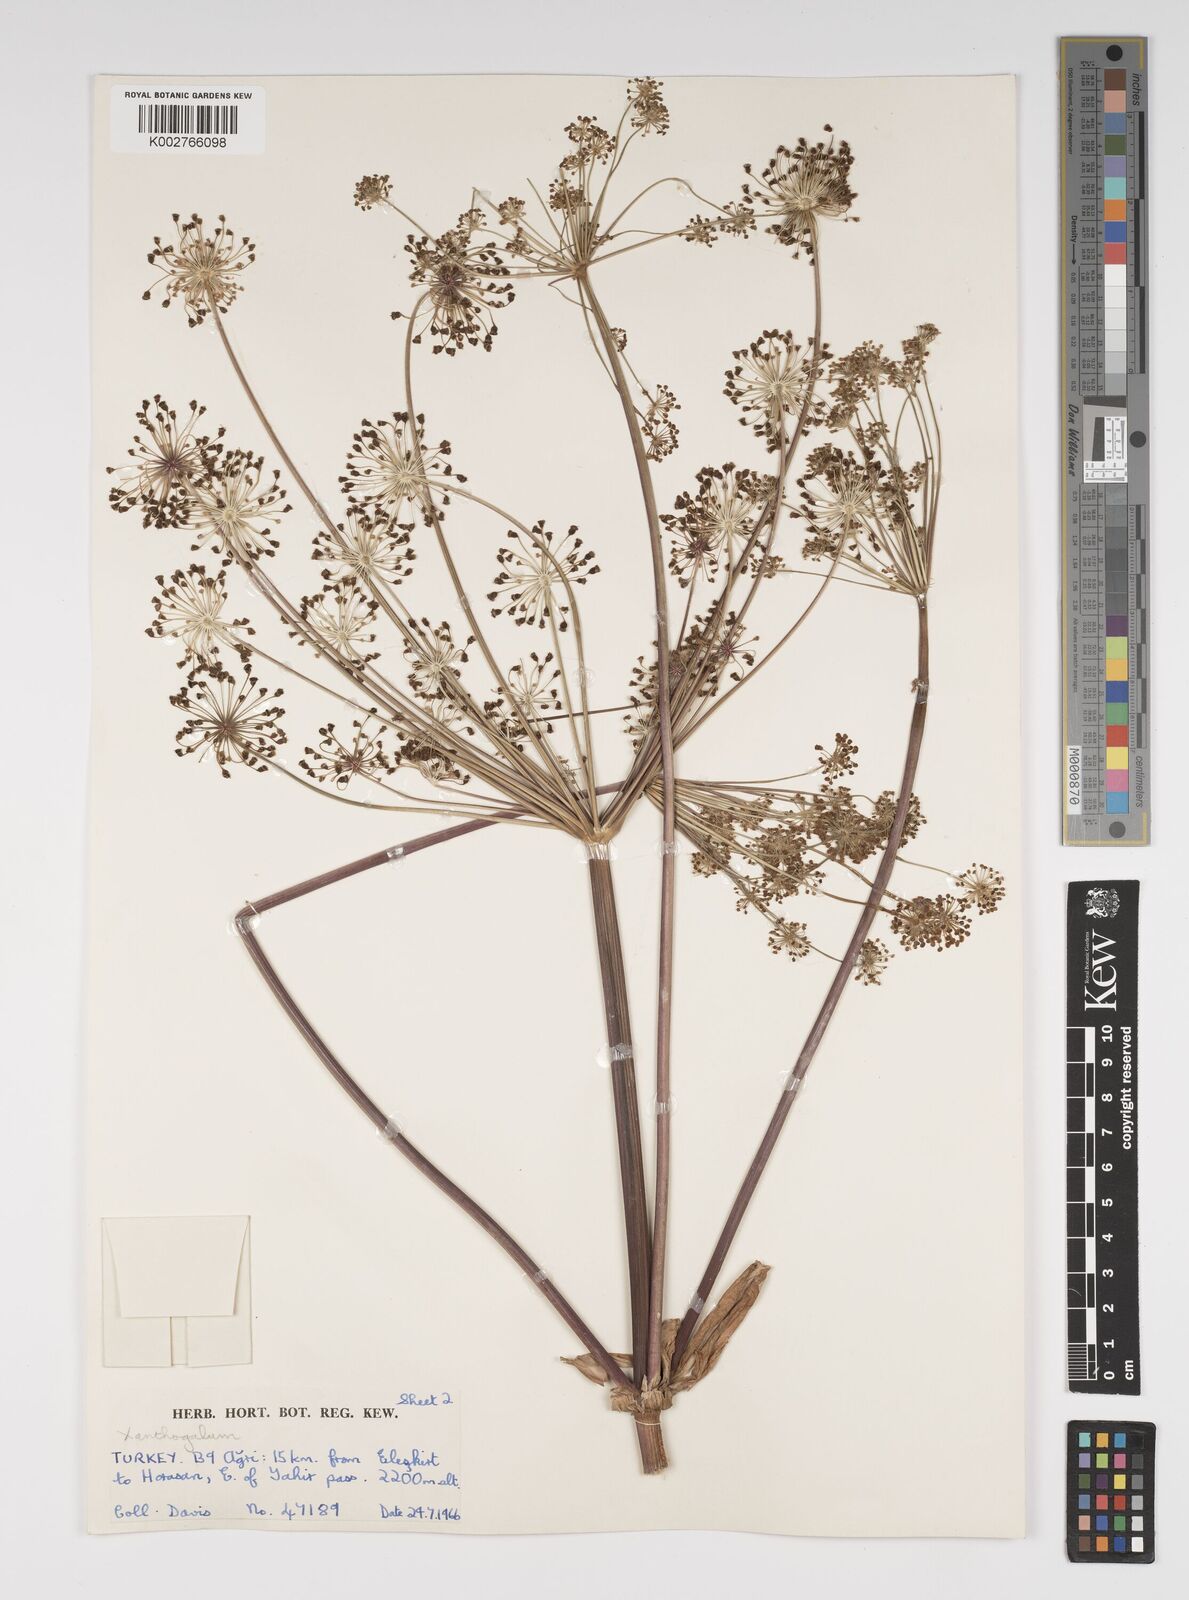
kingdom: Plantae
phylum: Tracheophyta
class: Magnoliopsida
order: Apiales
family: Apiaceae
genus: Xanthogalum
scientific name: Xanthogalum purpurascens
